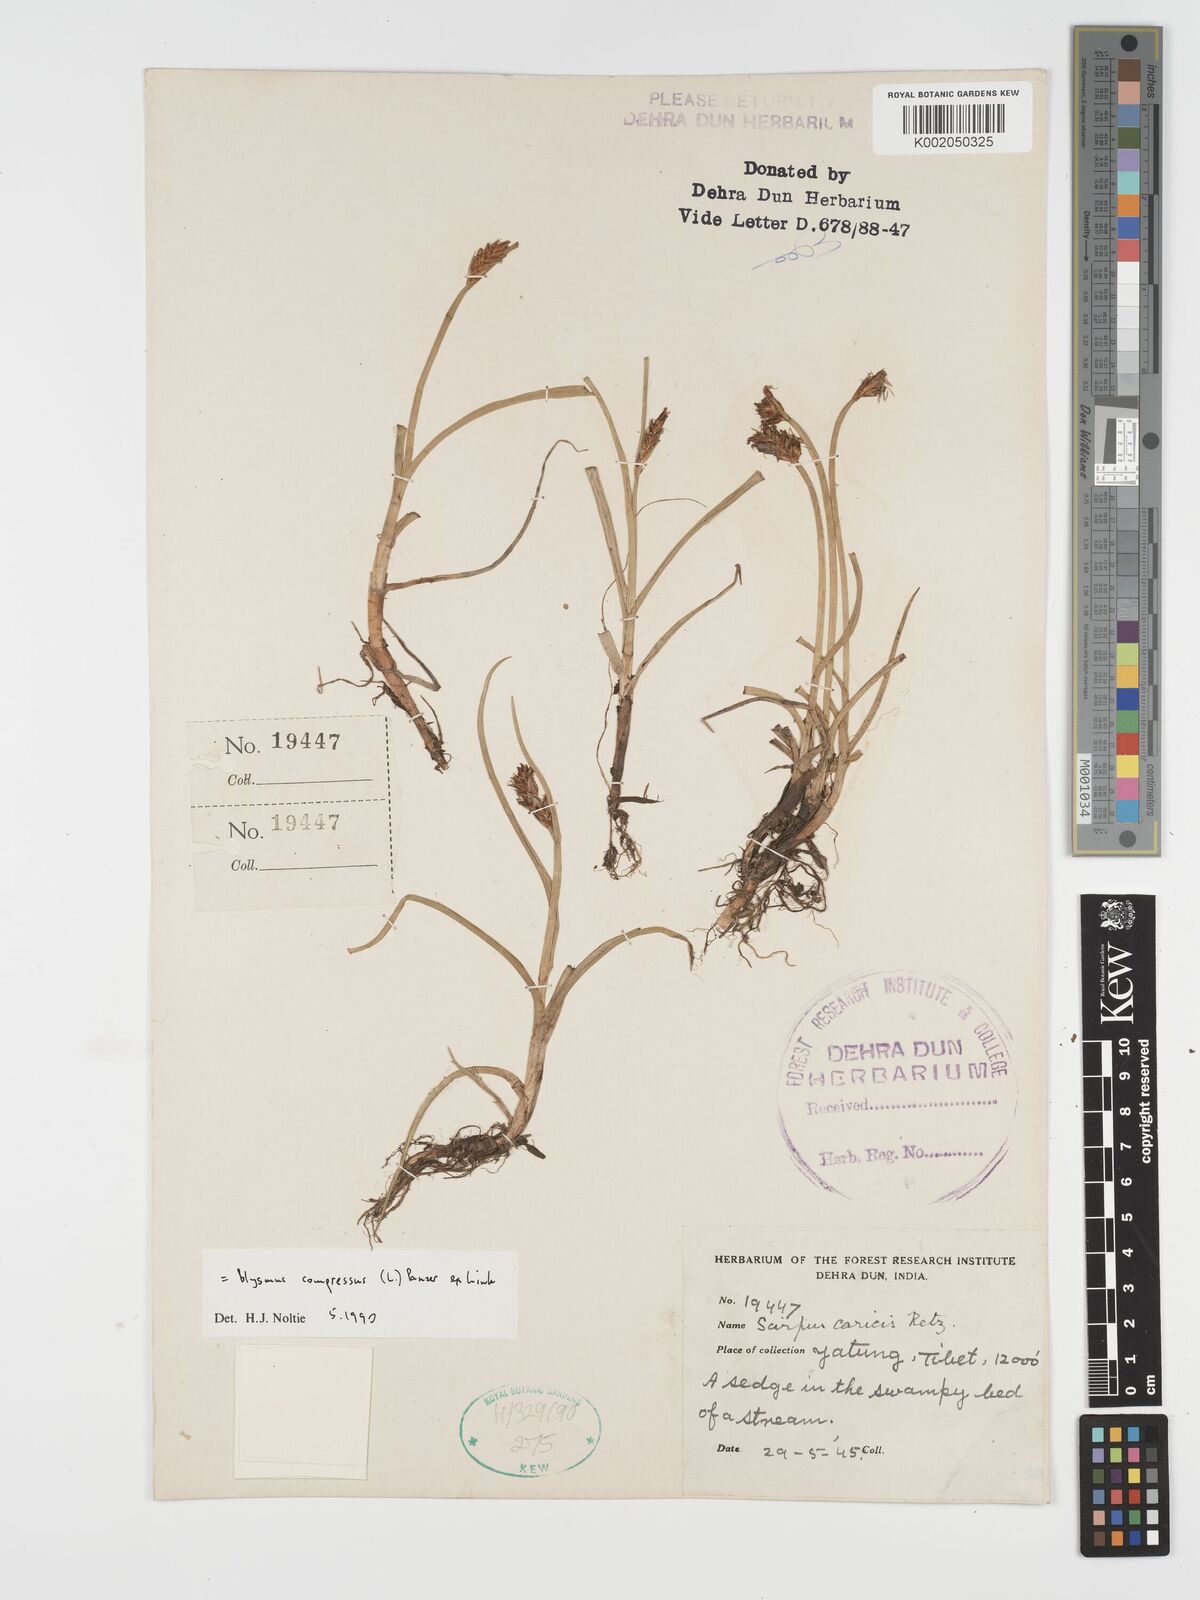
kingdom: Plantae
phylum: Tracheophyta
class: Liliopsida
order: Poales
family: Cyperaceae
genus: Blysmus
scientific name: Blysmus compressus
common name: Flat-sedge
